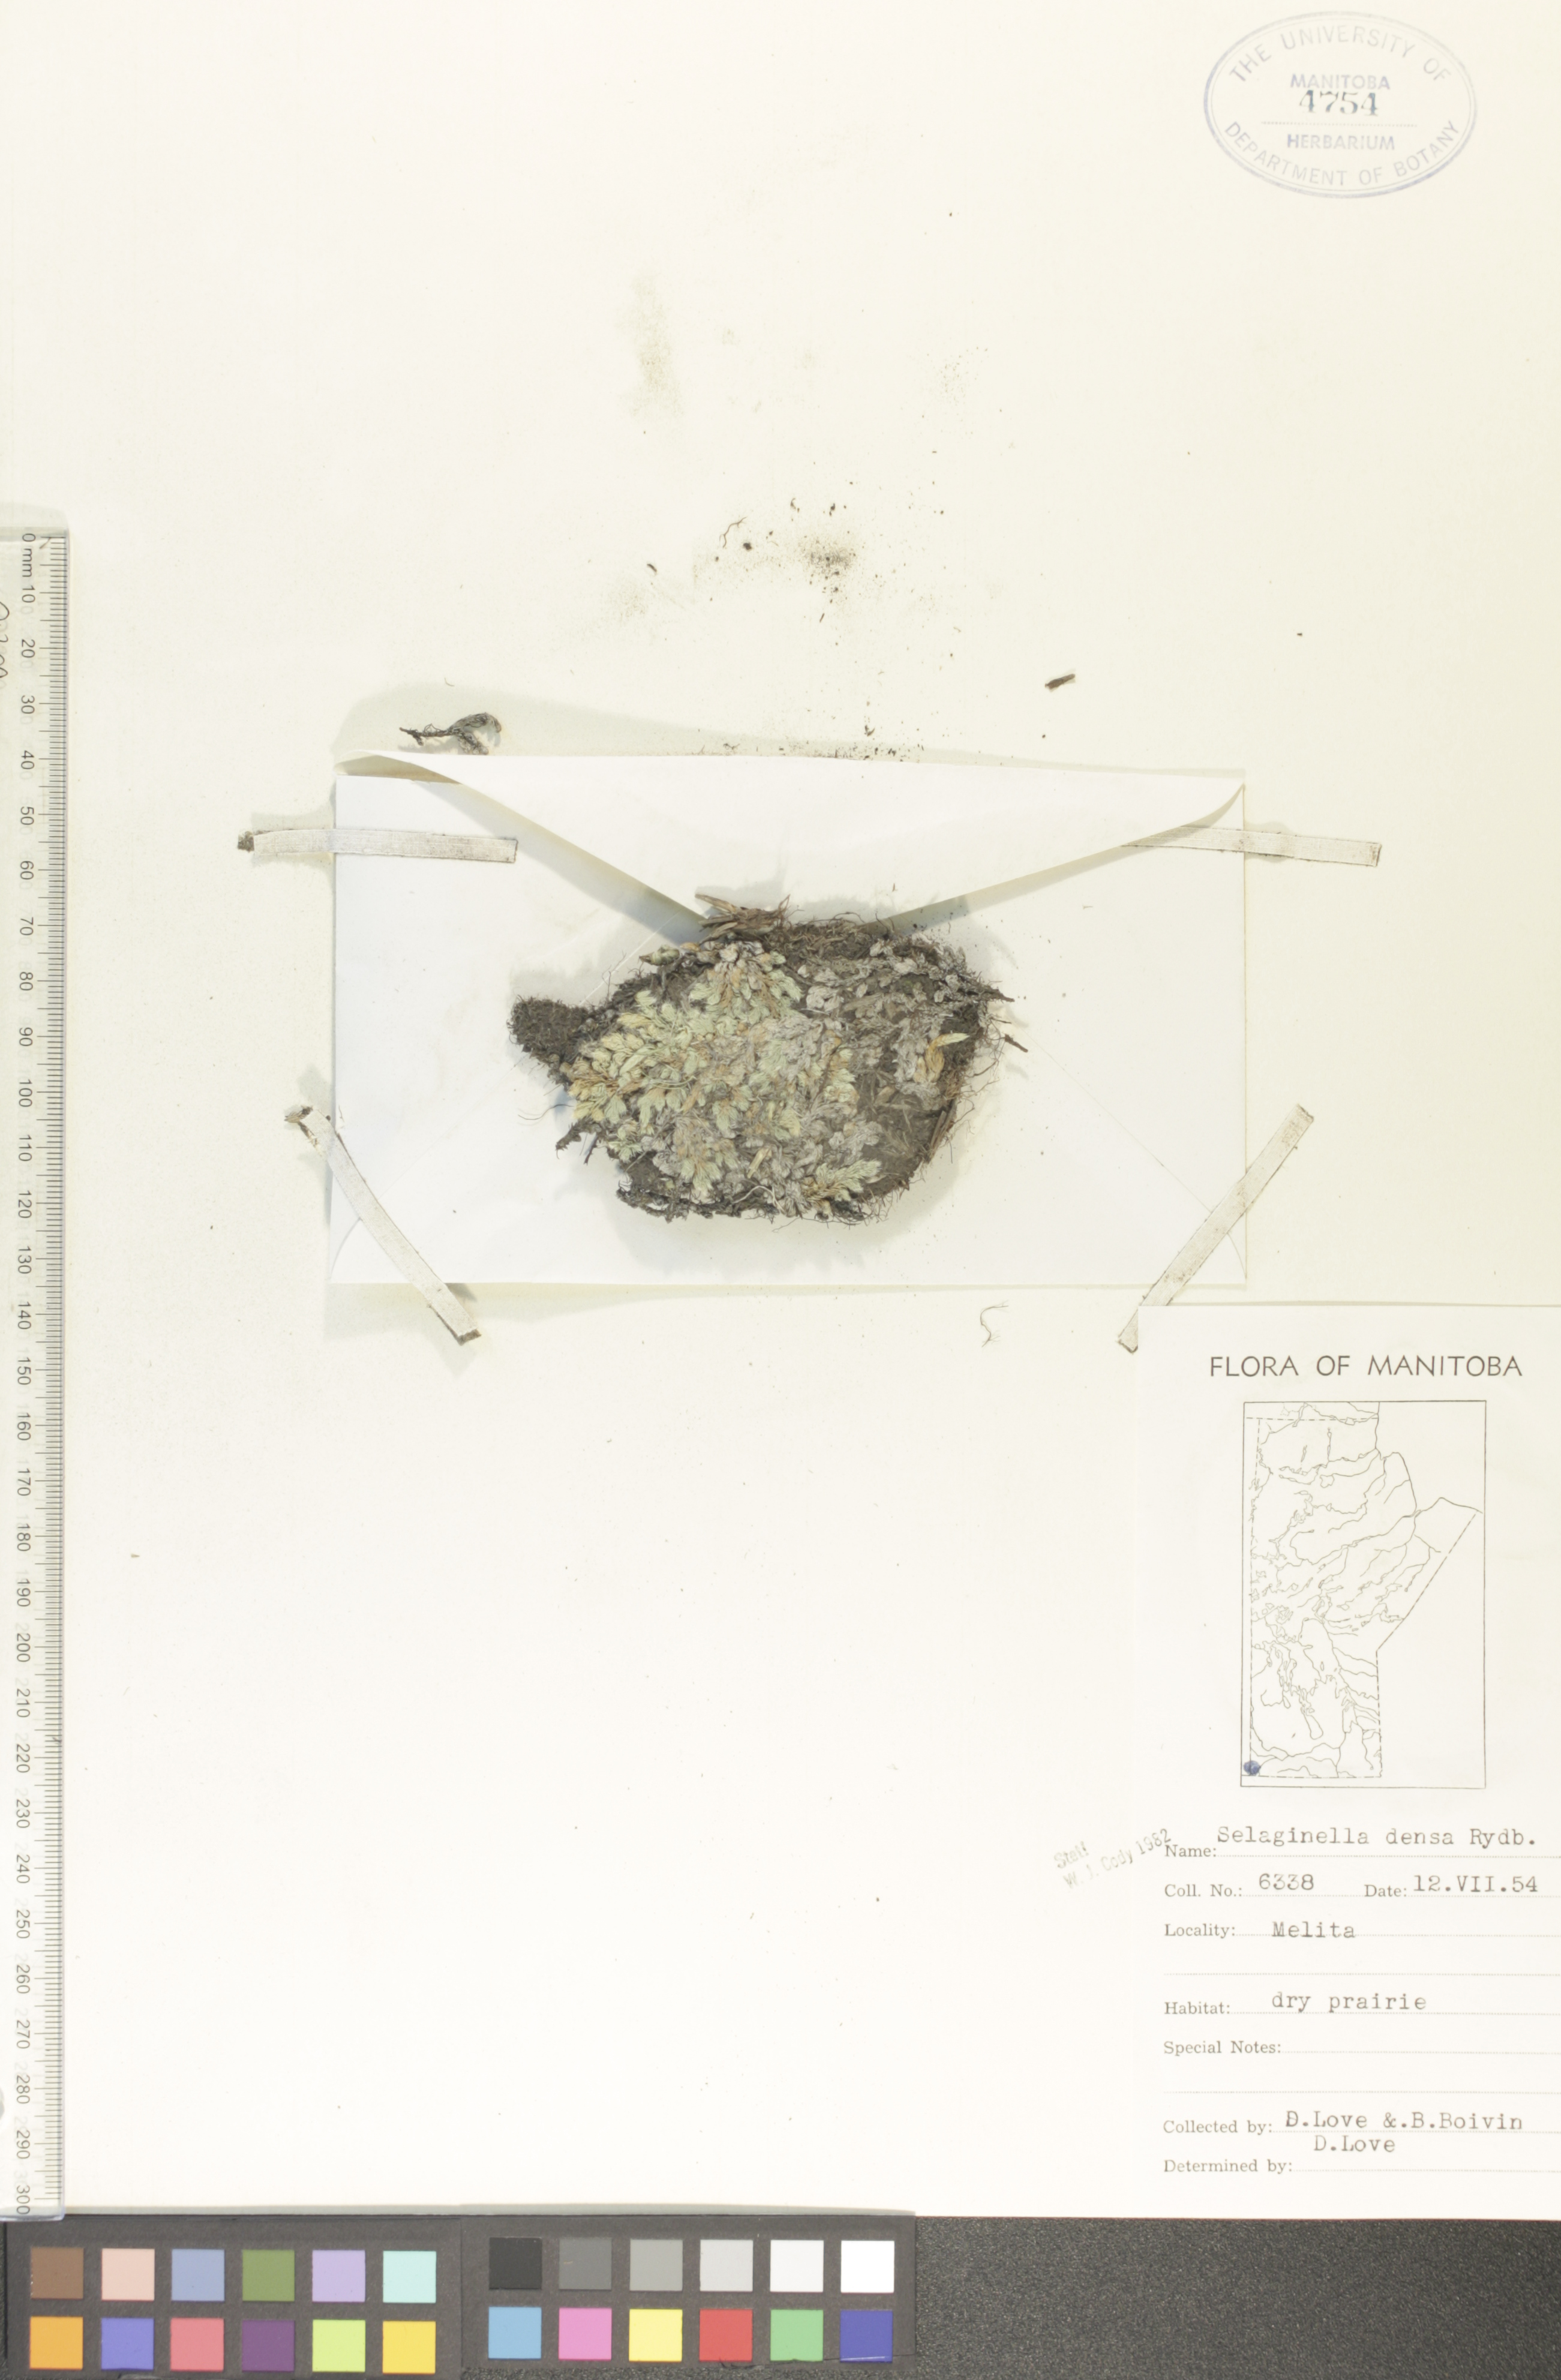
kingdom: Plantae
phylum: Tracheophyta
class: Lycopodiopsida
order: Selaginellales
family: Selaginellaceae
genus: Selaginella
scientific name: Selaginella densa
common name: Mountain spike-moss
